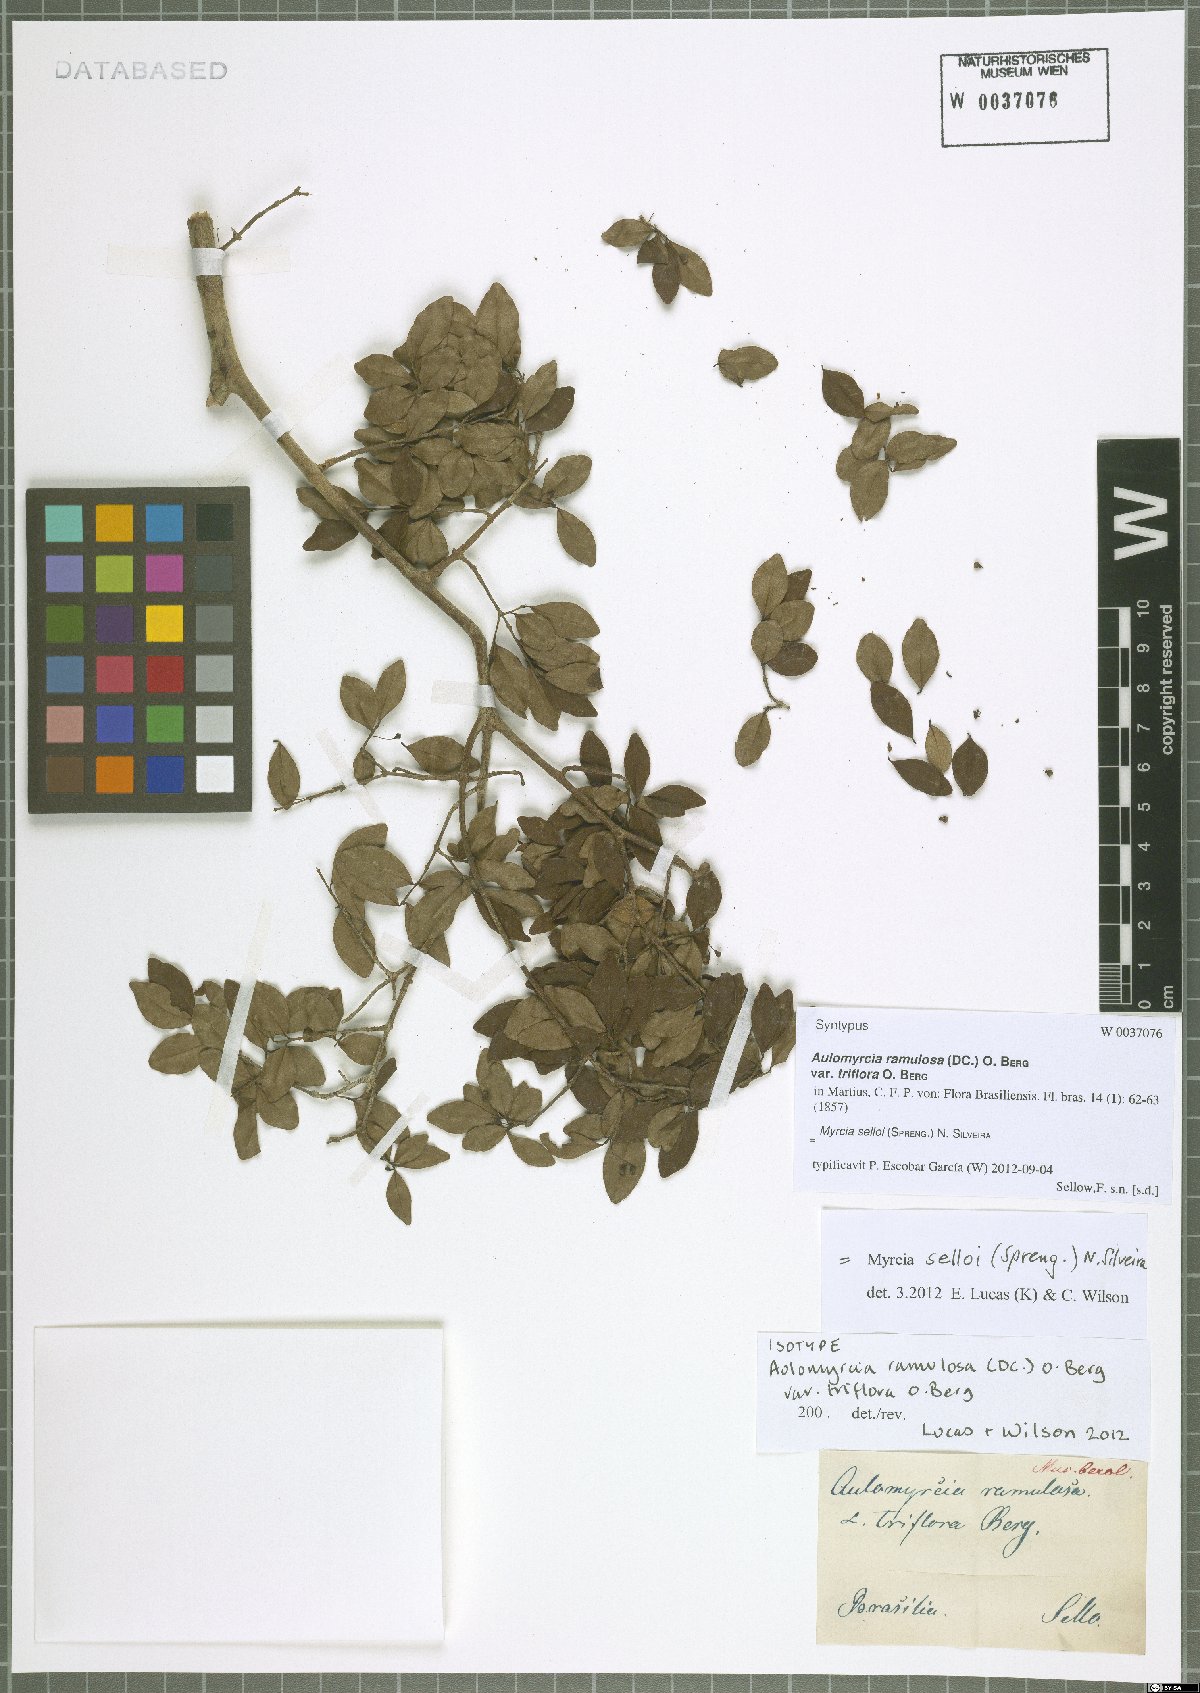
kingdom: Plantae
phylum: Tracheophyta
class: Magnoliopsida
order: Myrtales
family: Myrtaceae
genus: Myrcia
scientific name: Myrcia selloi
